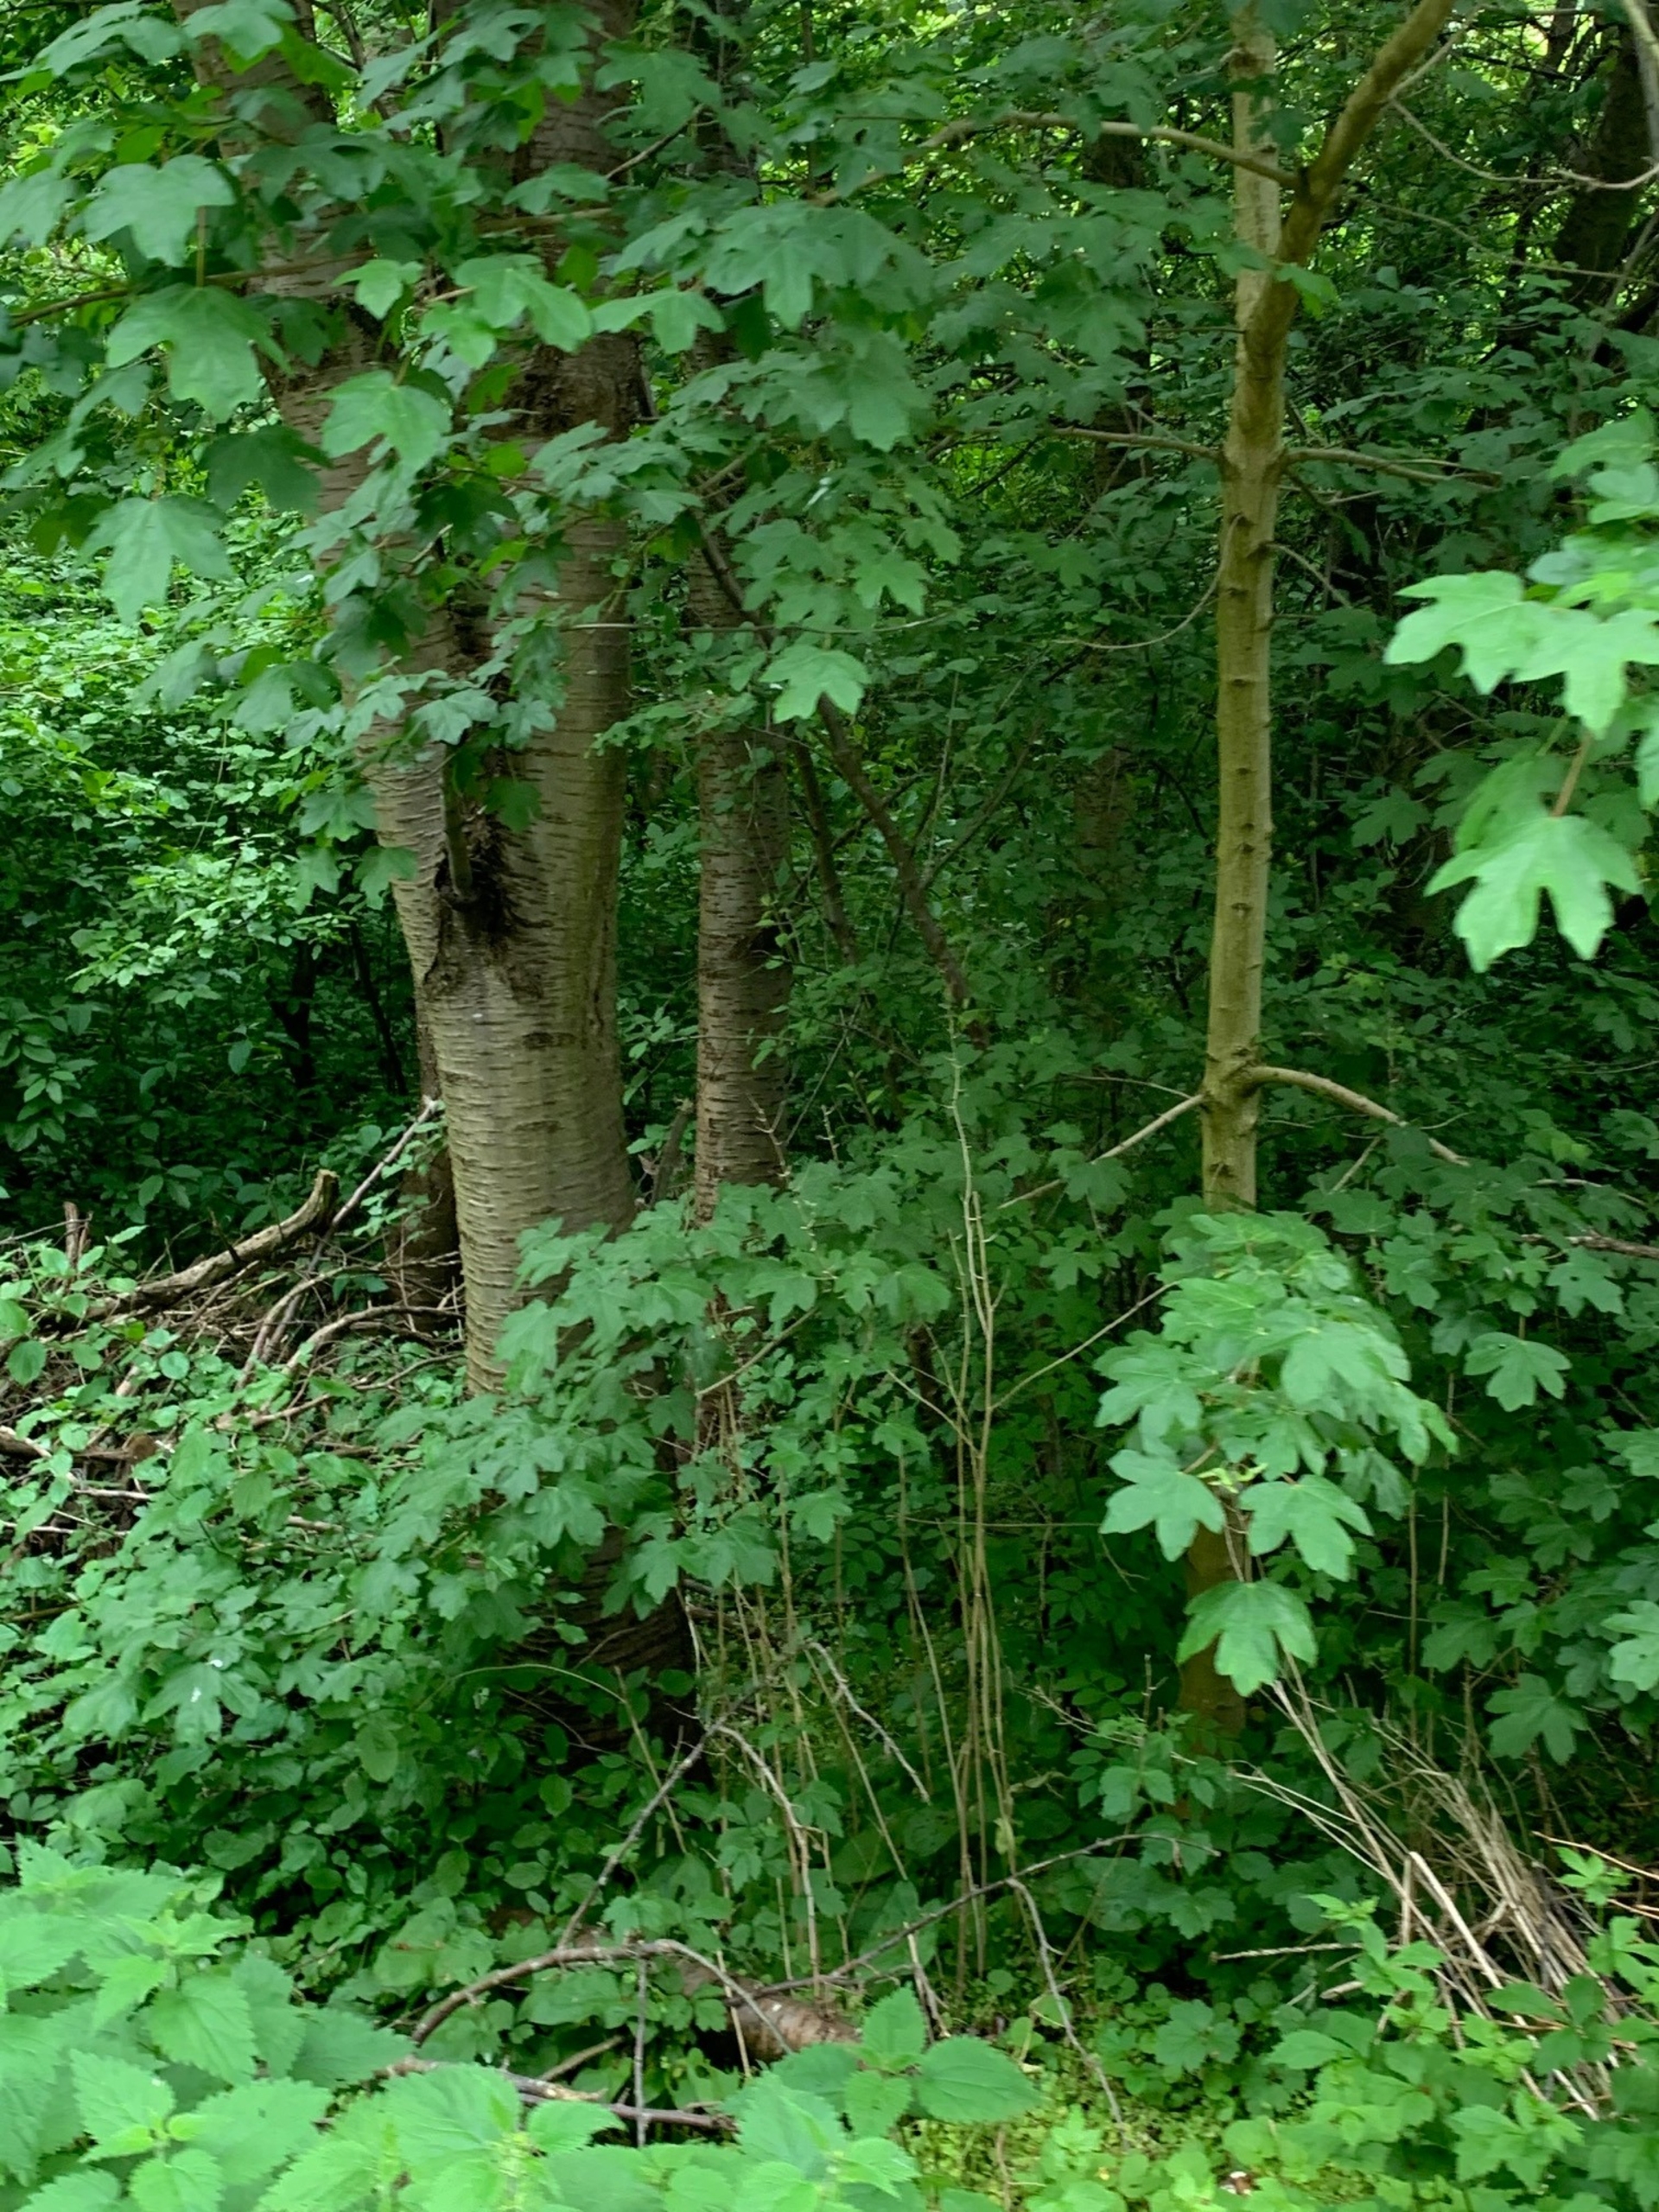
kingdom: Plantae
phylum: Tracheophyta
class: Magnoliopsida
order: Sapindales
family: Sapindaceae
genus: Acer
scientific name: Acer campestre
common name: Navr
